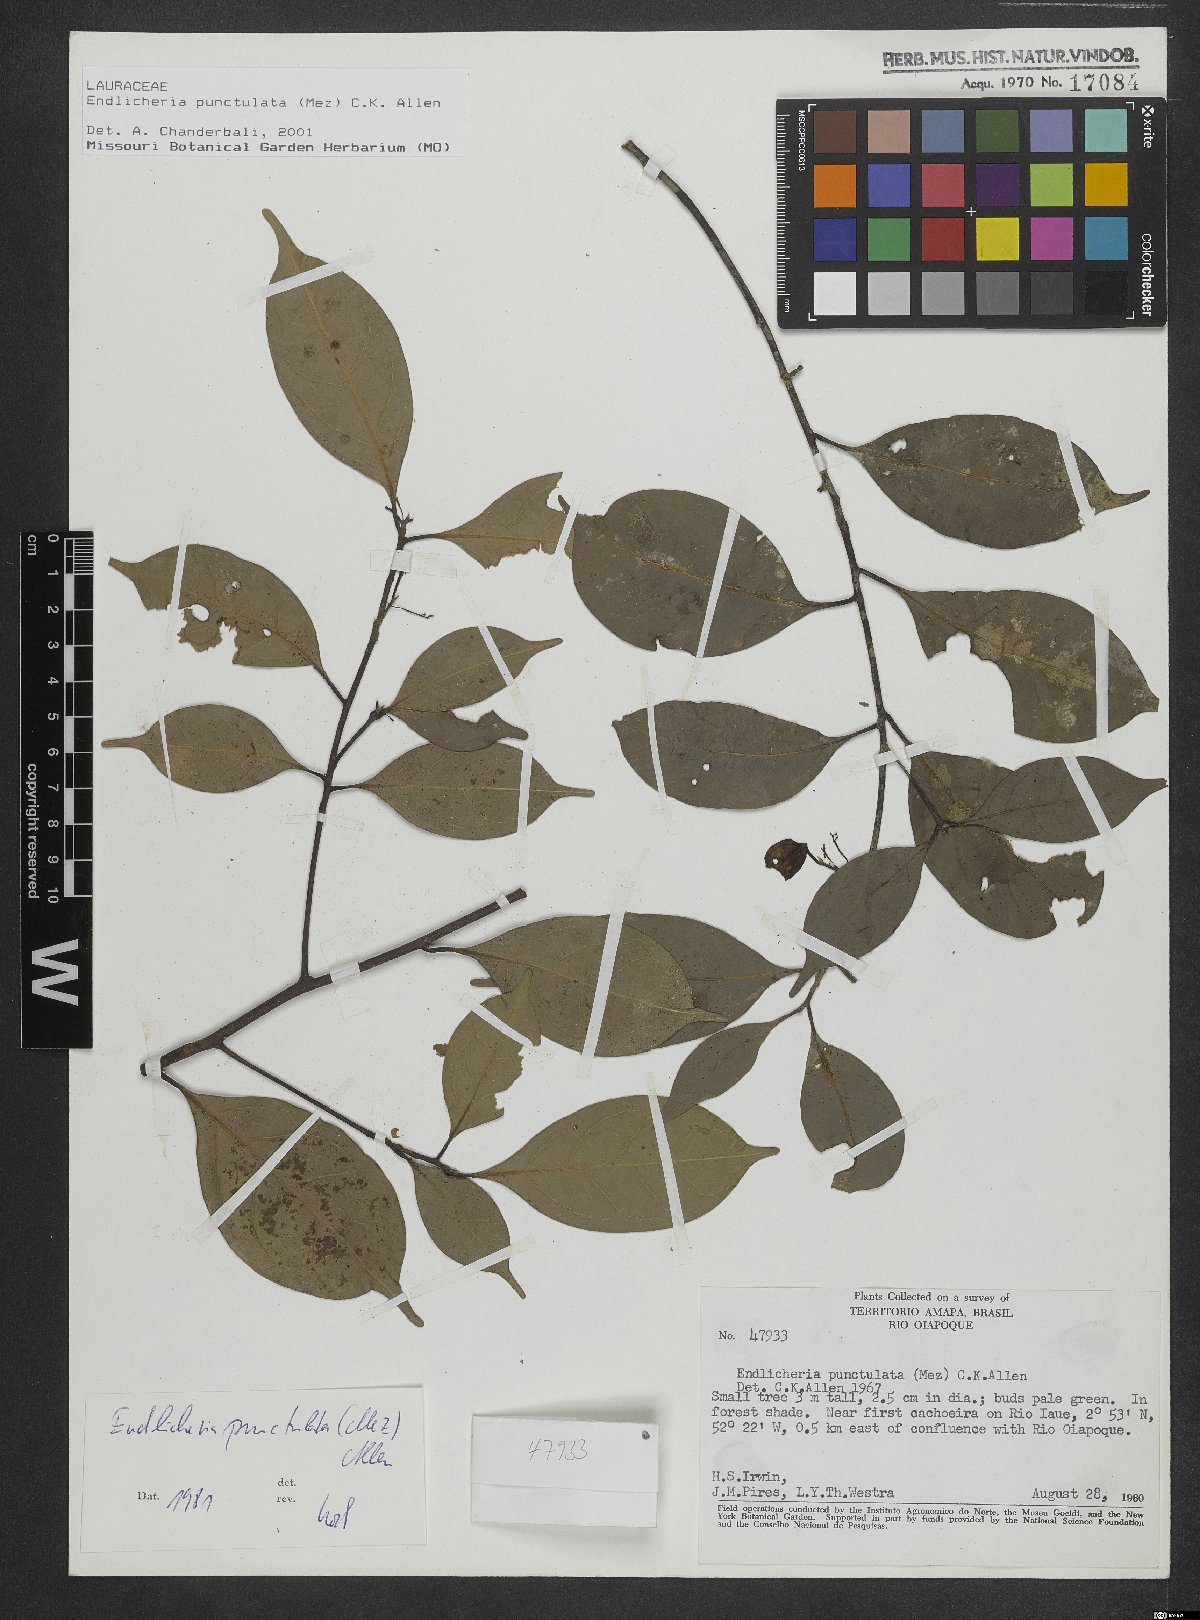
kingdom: Plantae
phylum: Tracheophyta
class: Magnoliopsida
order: Laurales
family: Lauraceae
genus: Endlicheria
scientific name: Endlicheria punctulata
